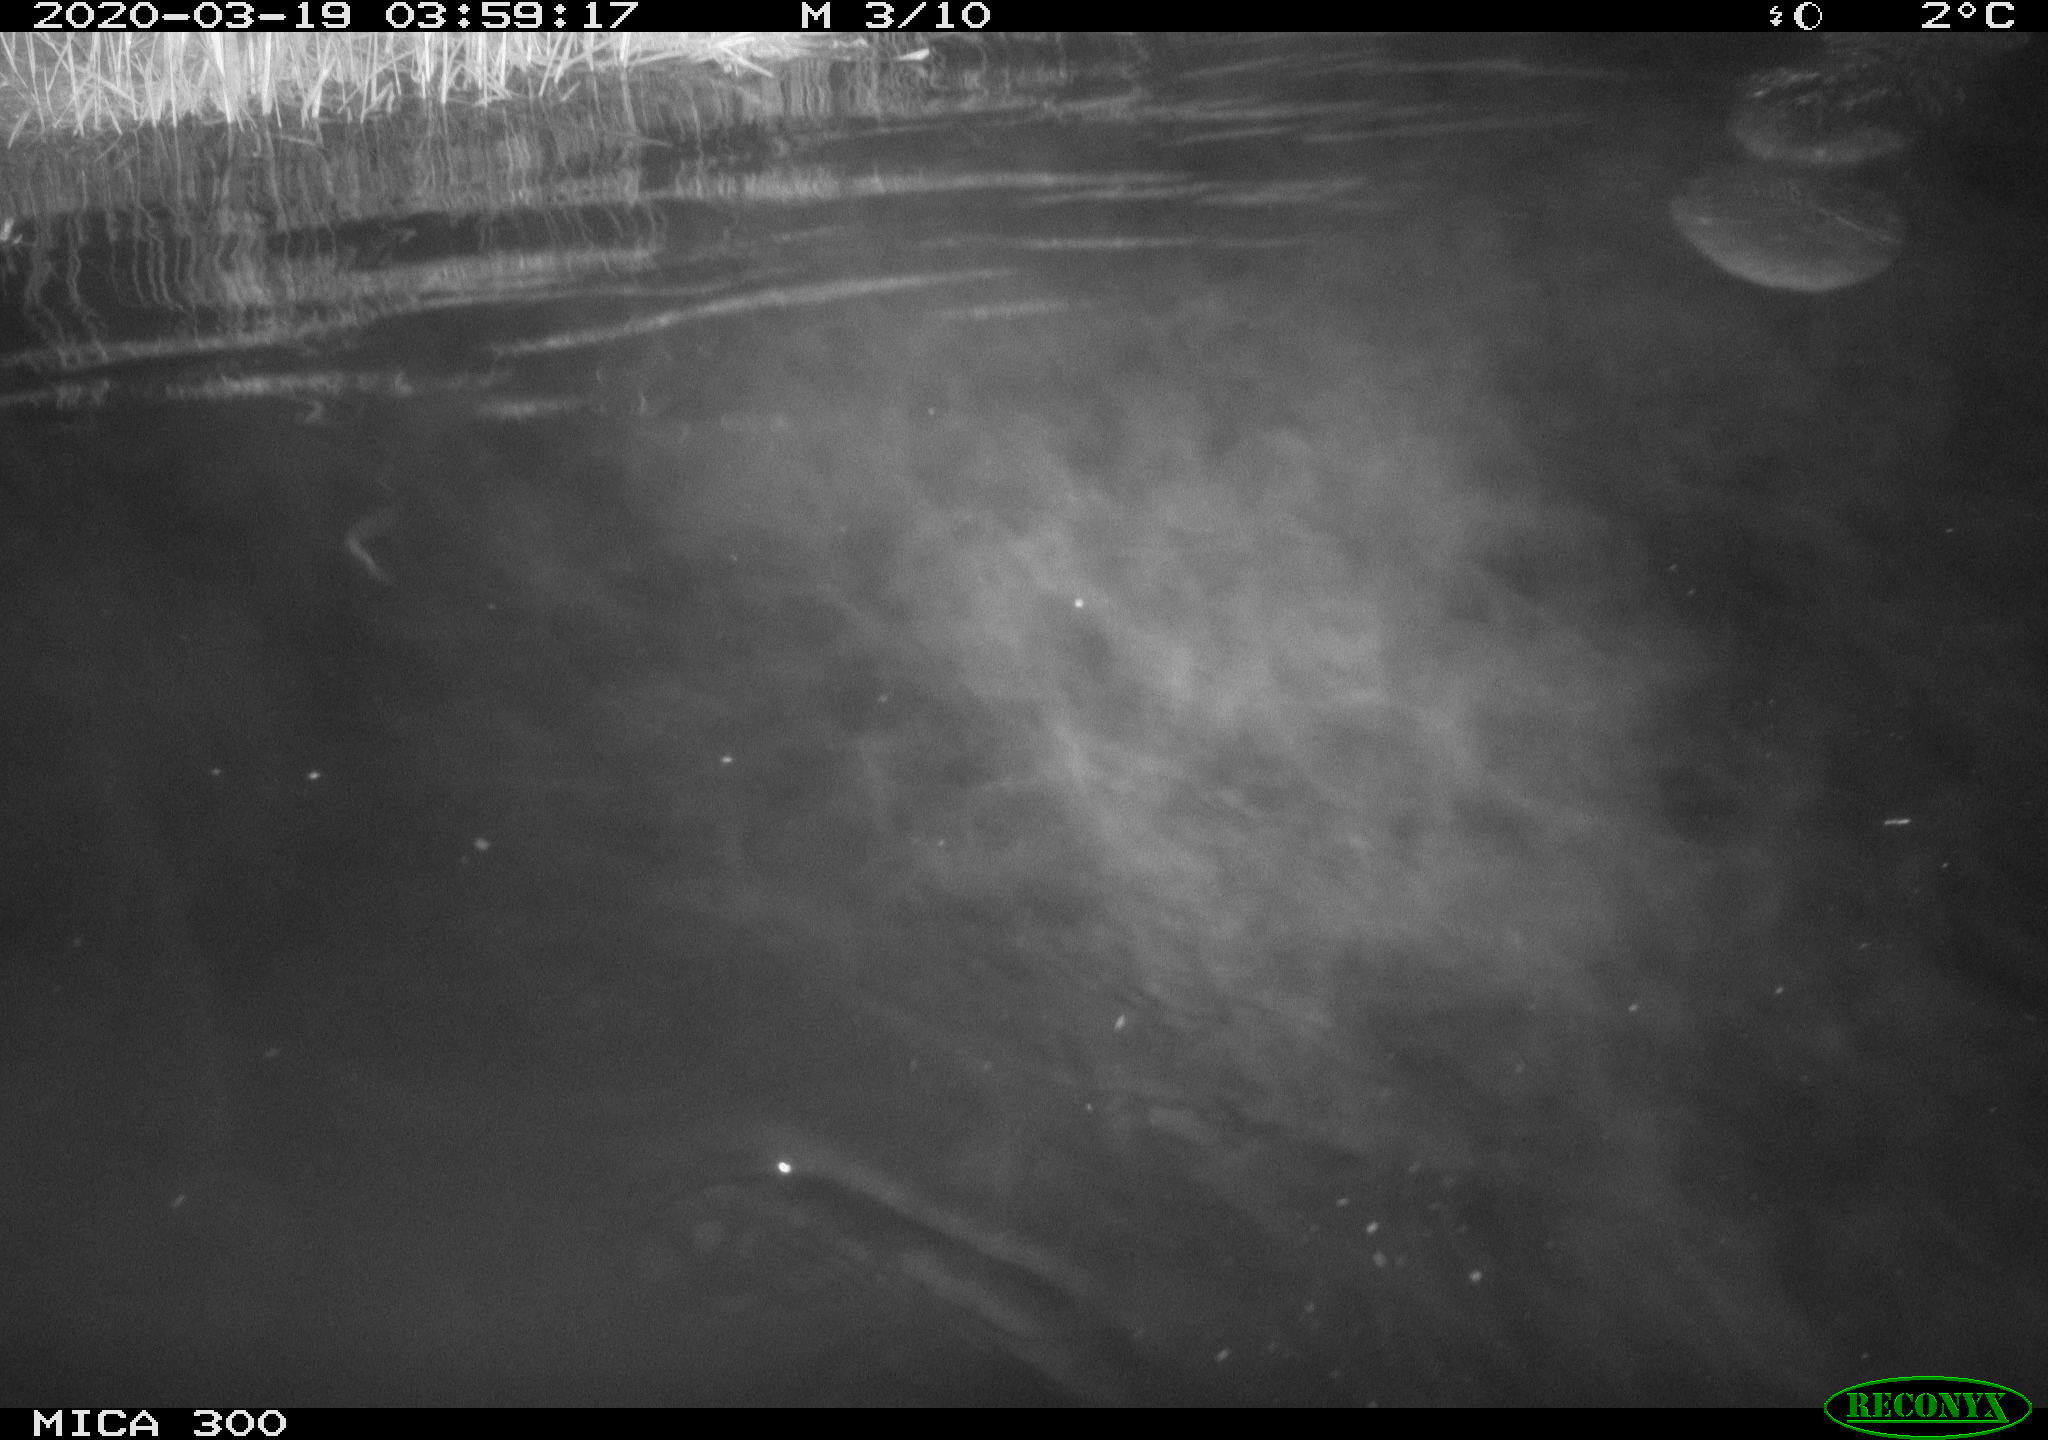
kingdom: Animalia
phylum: Chordata
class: Mammalia
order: Rodentia
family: Castoridae
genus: Castor
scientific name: Castor fiber
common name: Eurasian beaver
